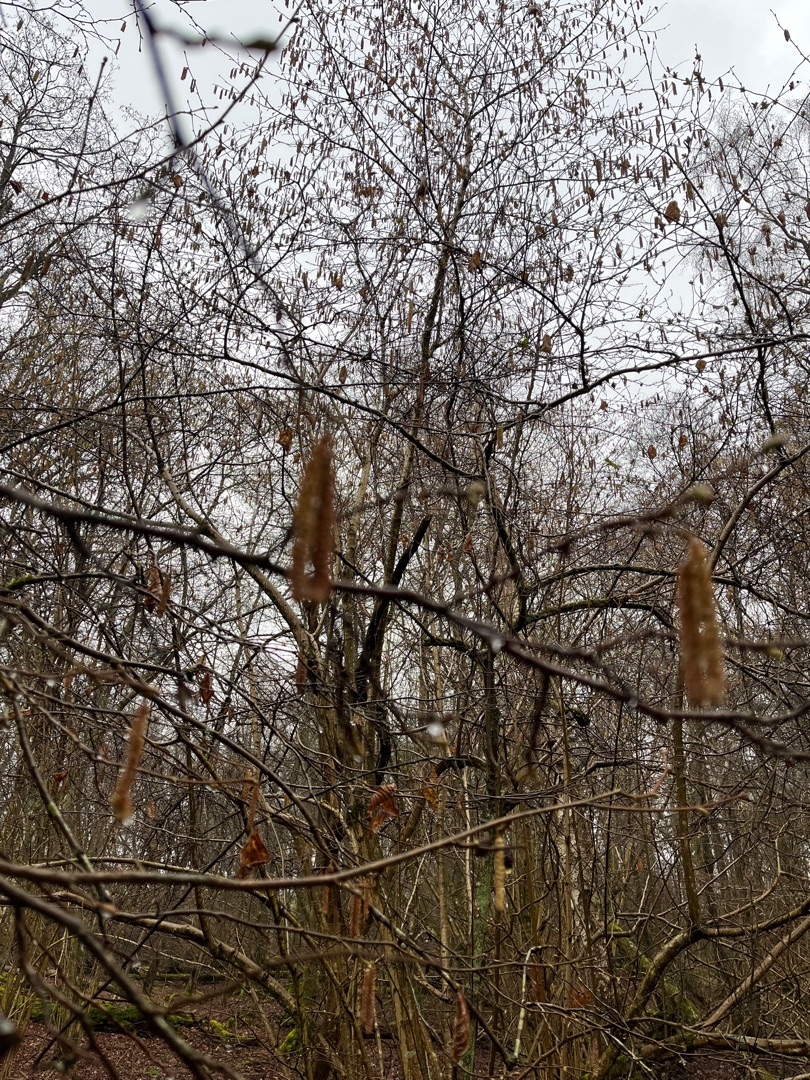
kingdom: Plantae
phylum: Tracheophyta
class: Magnoliopsida
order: Fagales
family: Betulaceae
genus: Corylus
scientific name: Corylus avellana
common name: Hassel
